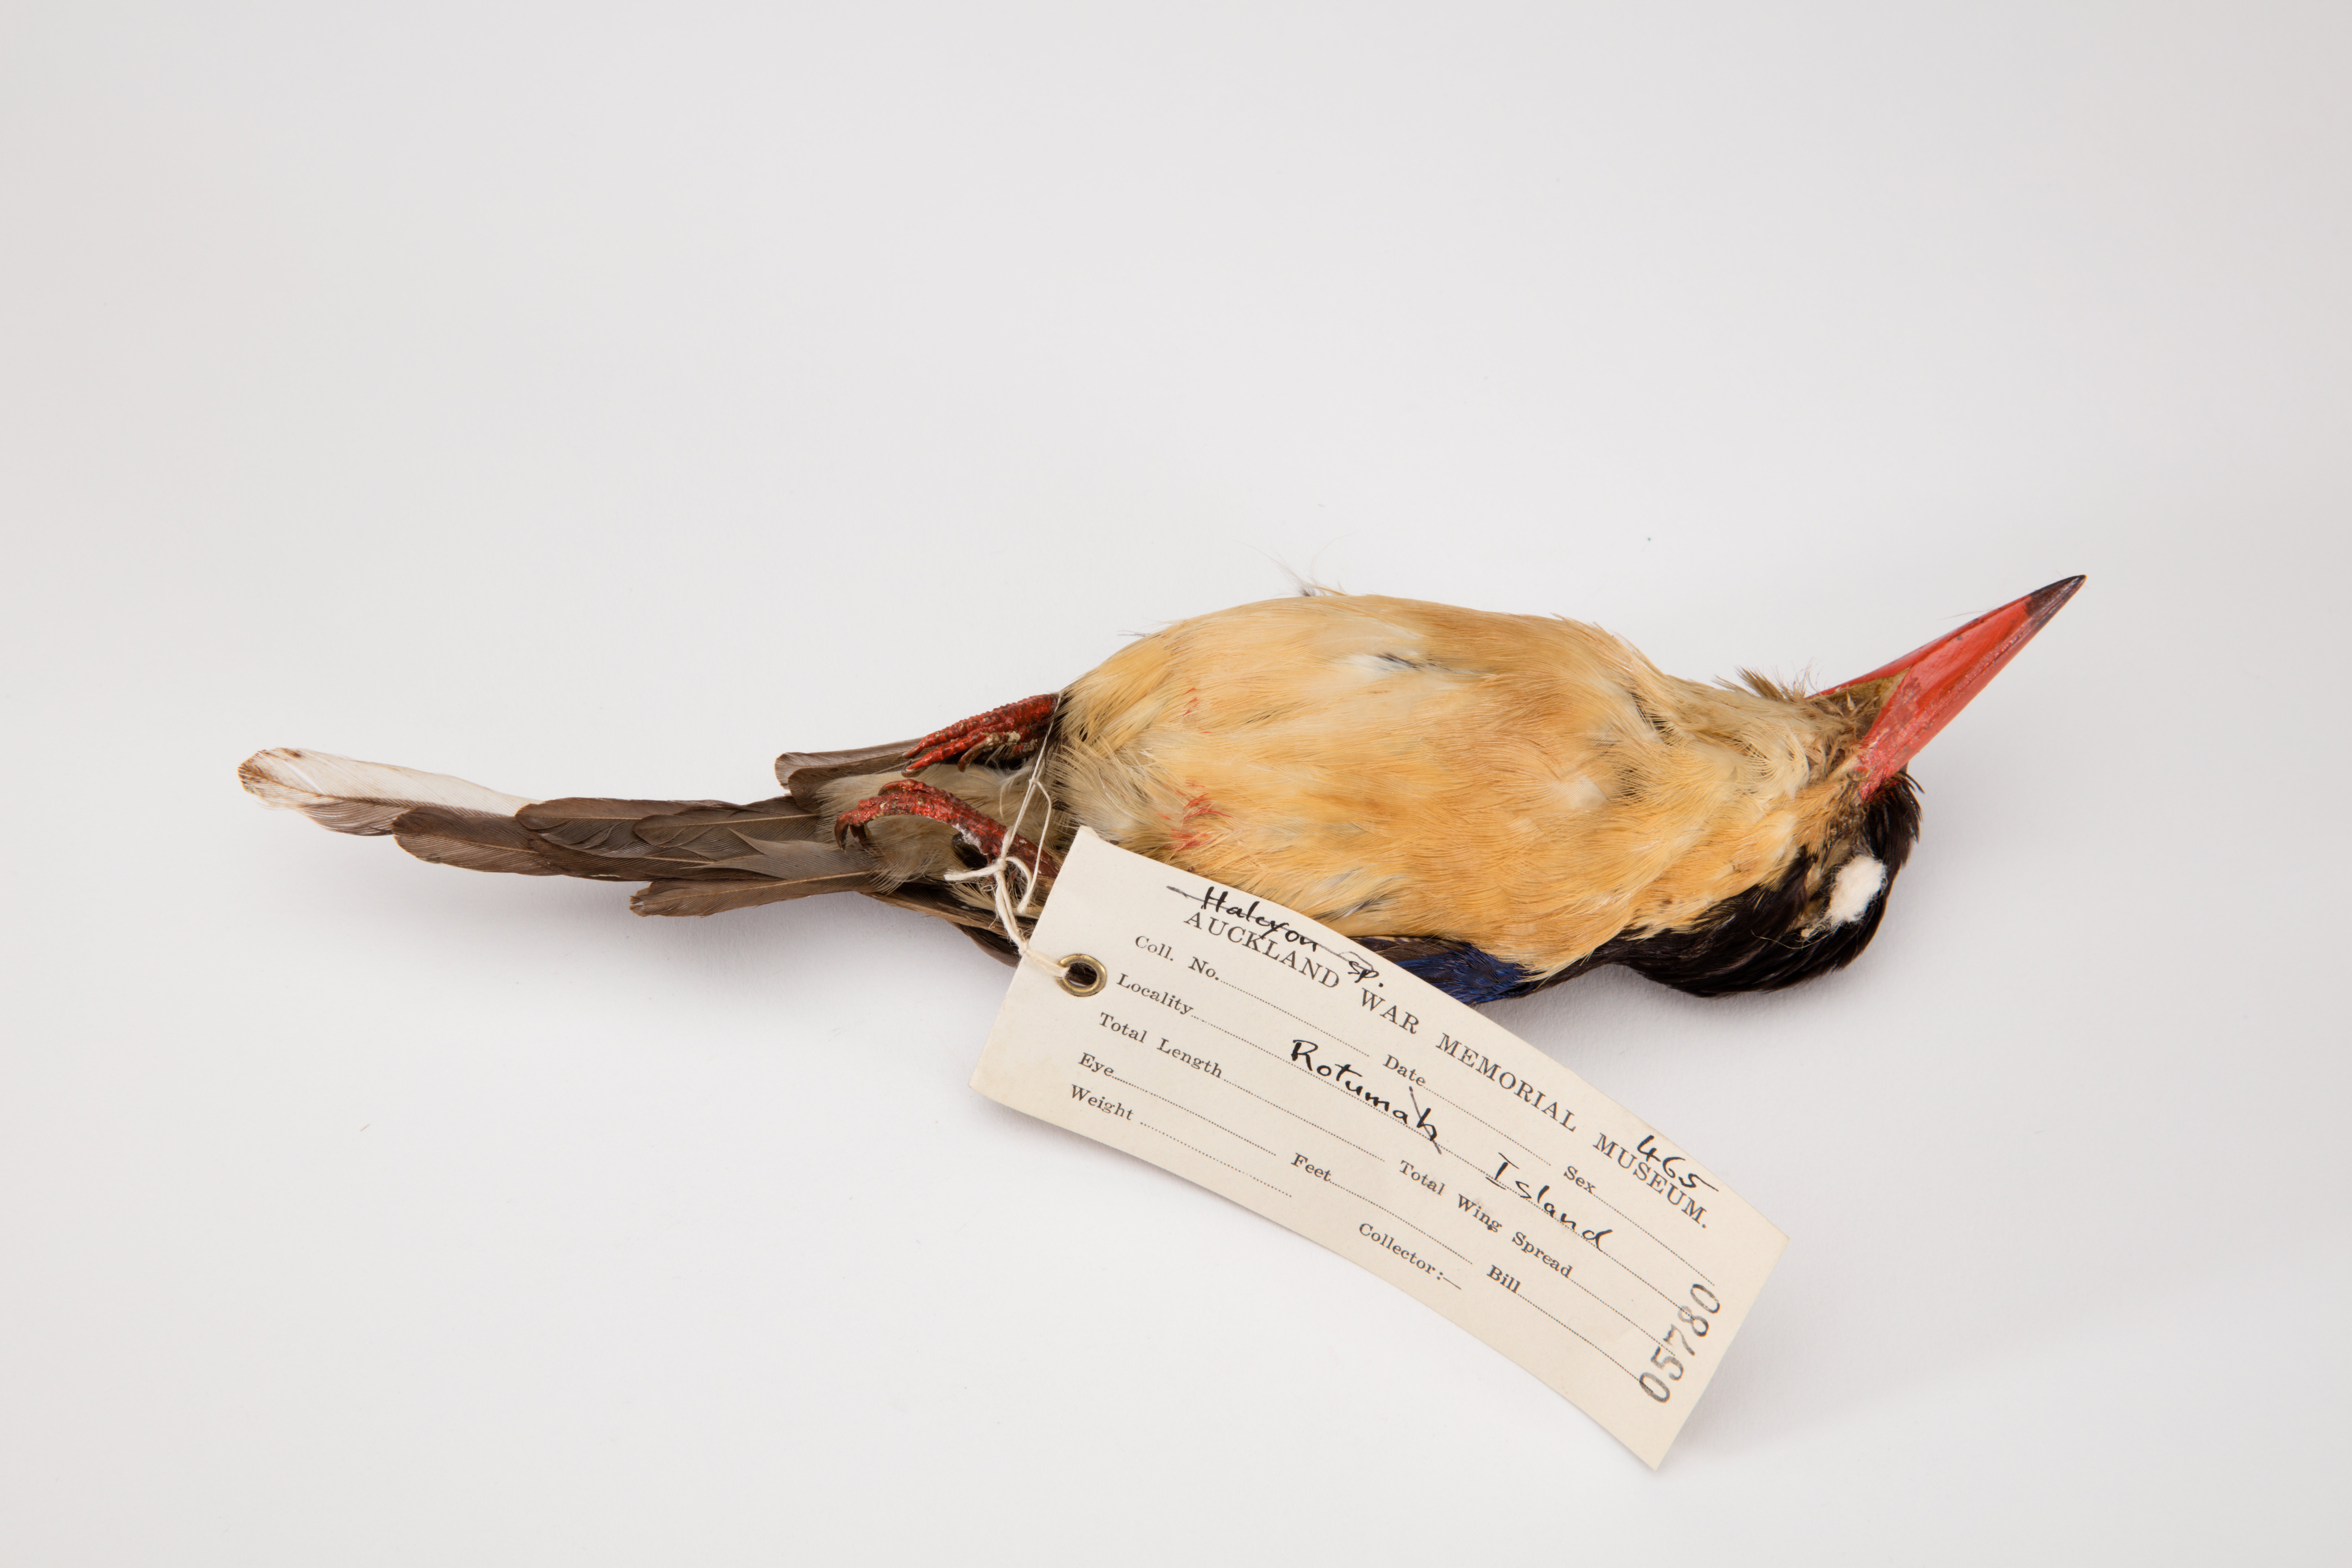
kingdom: Animalia
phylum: Chordata
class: Aves
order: Coraciiformes
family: Alcedinidae
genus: Tanysiptera
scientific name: Tanysiptera
